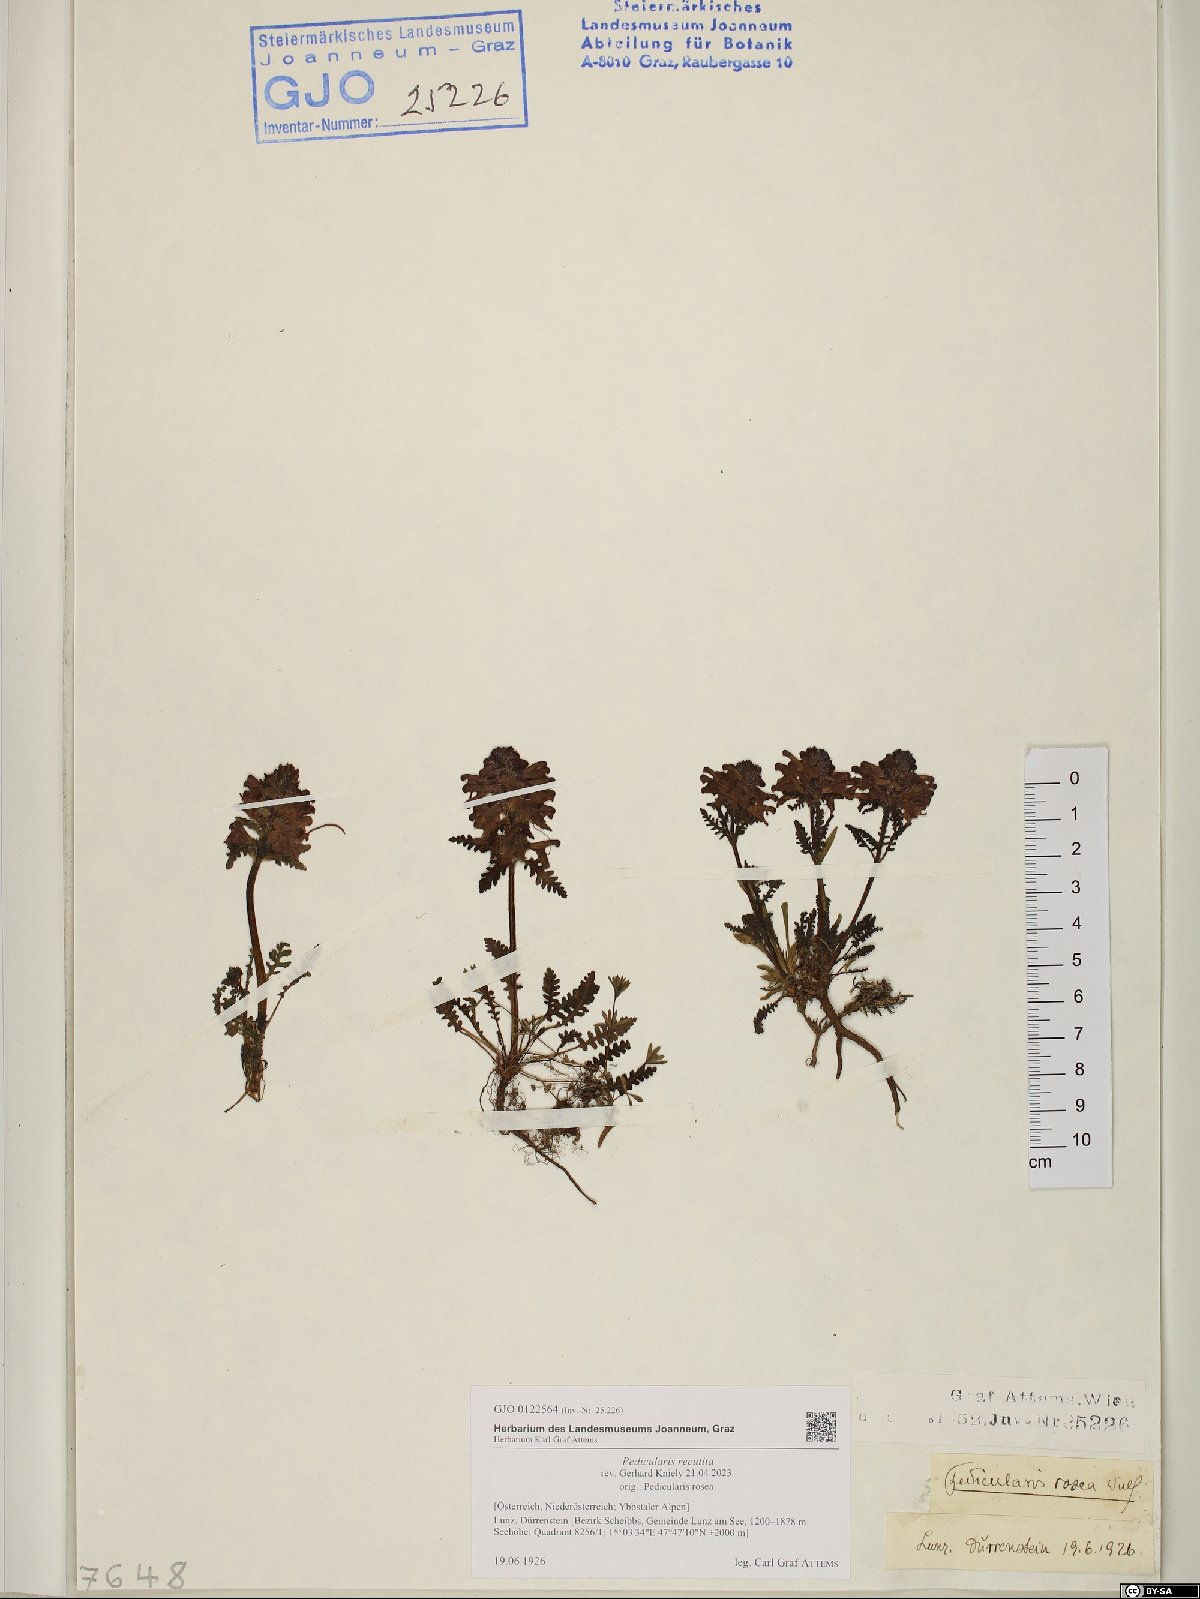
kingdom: Plantae
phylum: Tracheophyta
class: Magnoliopsida
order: Lamiales
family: Orobanchaceae
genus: Pedicularis
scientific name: Pedicularis recutita
